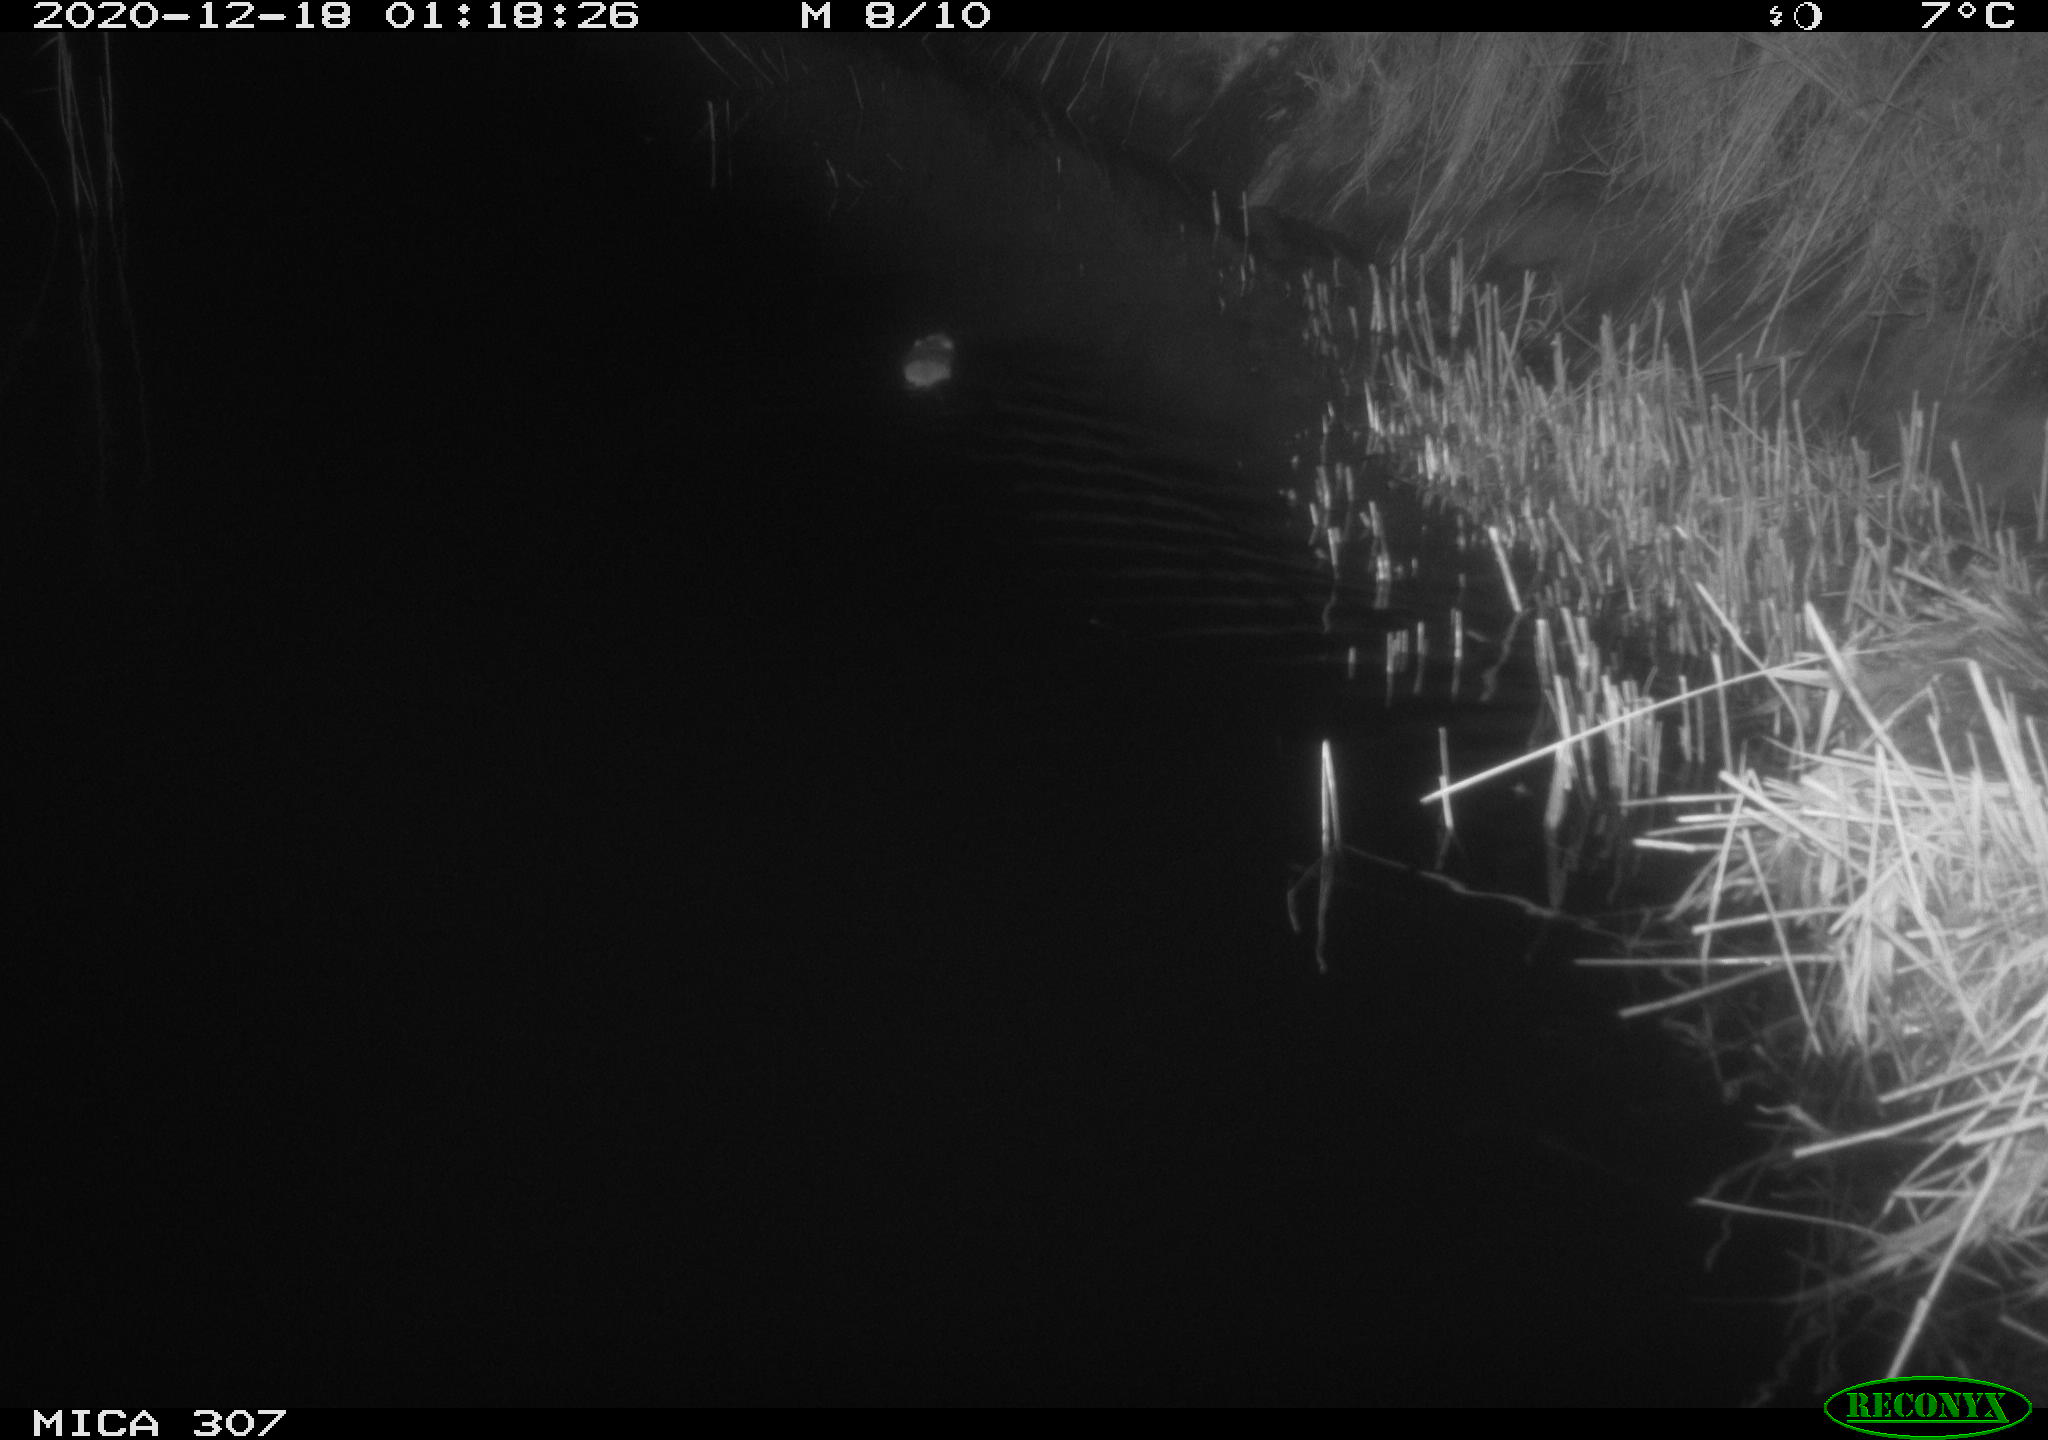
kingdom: Animalia
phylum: Chordata
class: Mammalia
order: Rodentia
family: Muridae
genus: Rattus
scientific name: Rattus norvegicus
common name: Brown rat
